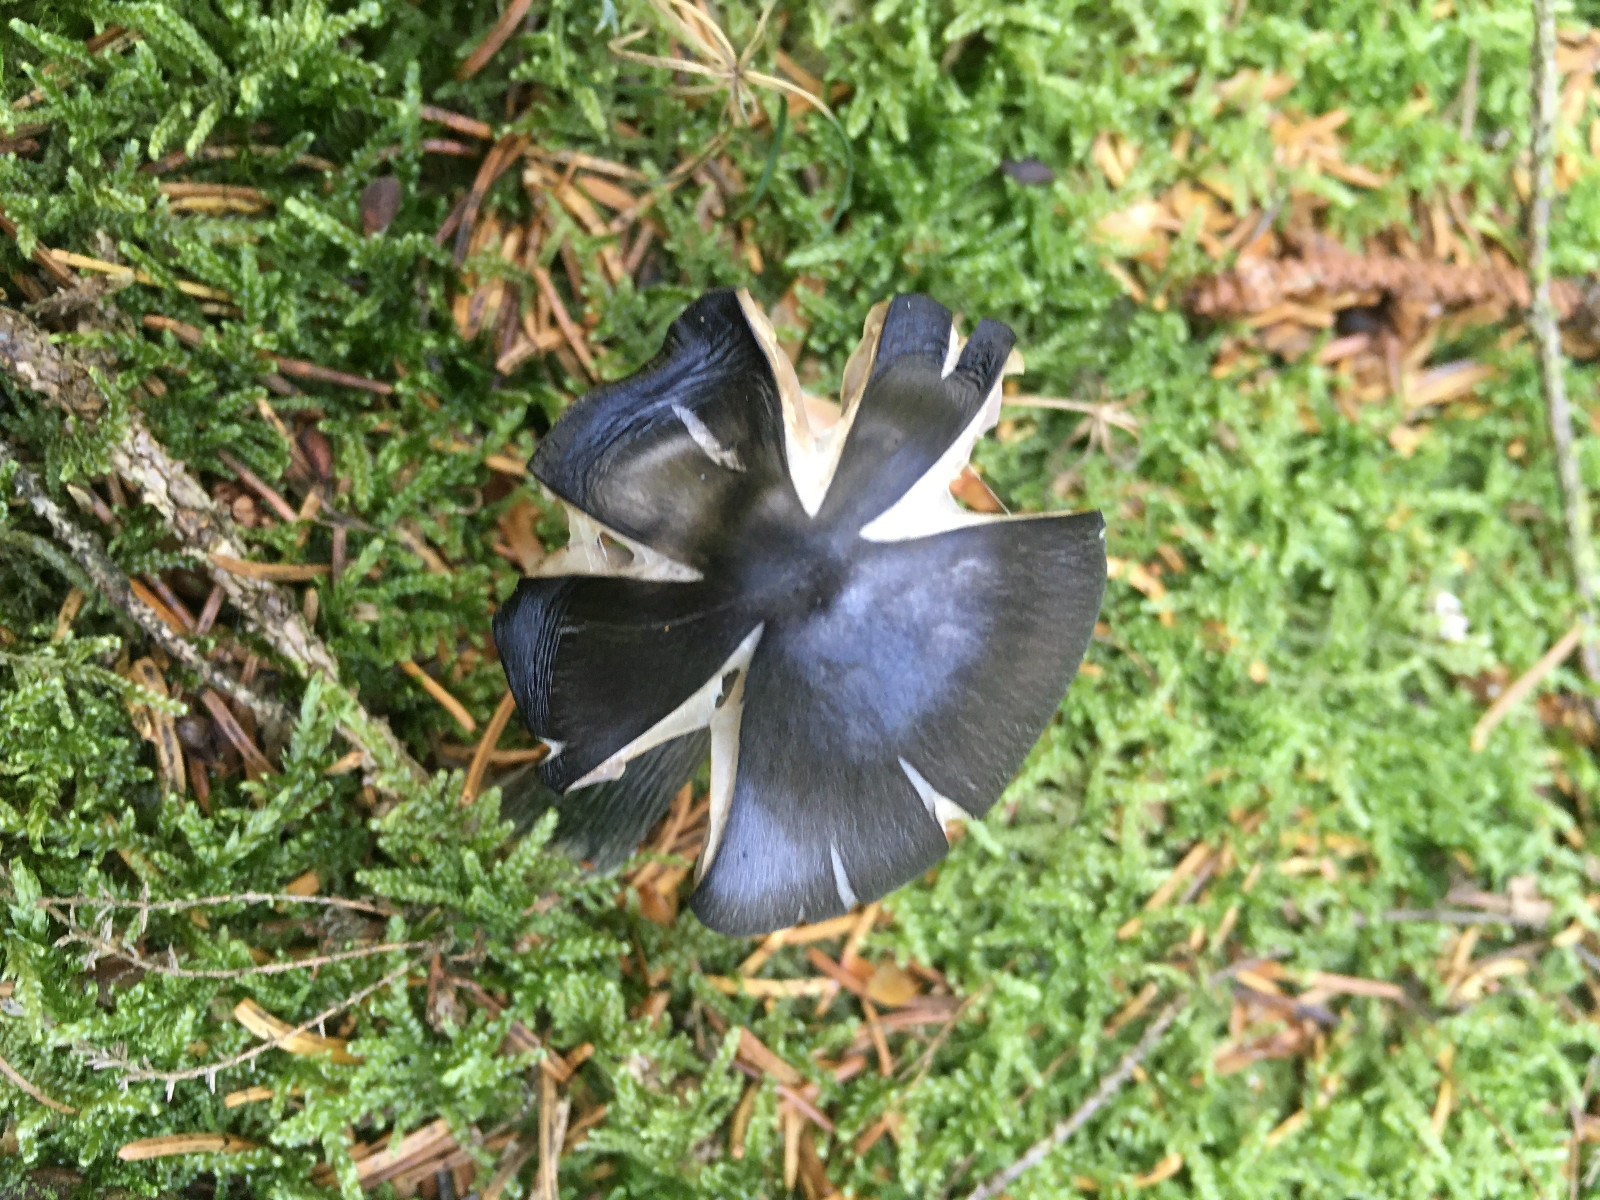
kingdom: Fungi
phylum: Basidiomycota
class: Agaricomycetes
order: Agaricales
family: Entolomataceae
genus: Entocybe
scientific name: Entocybe nitida
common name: stålblå rødblad
